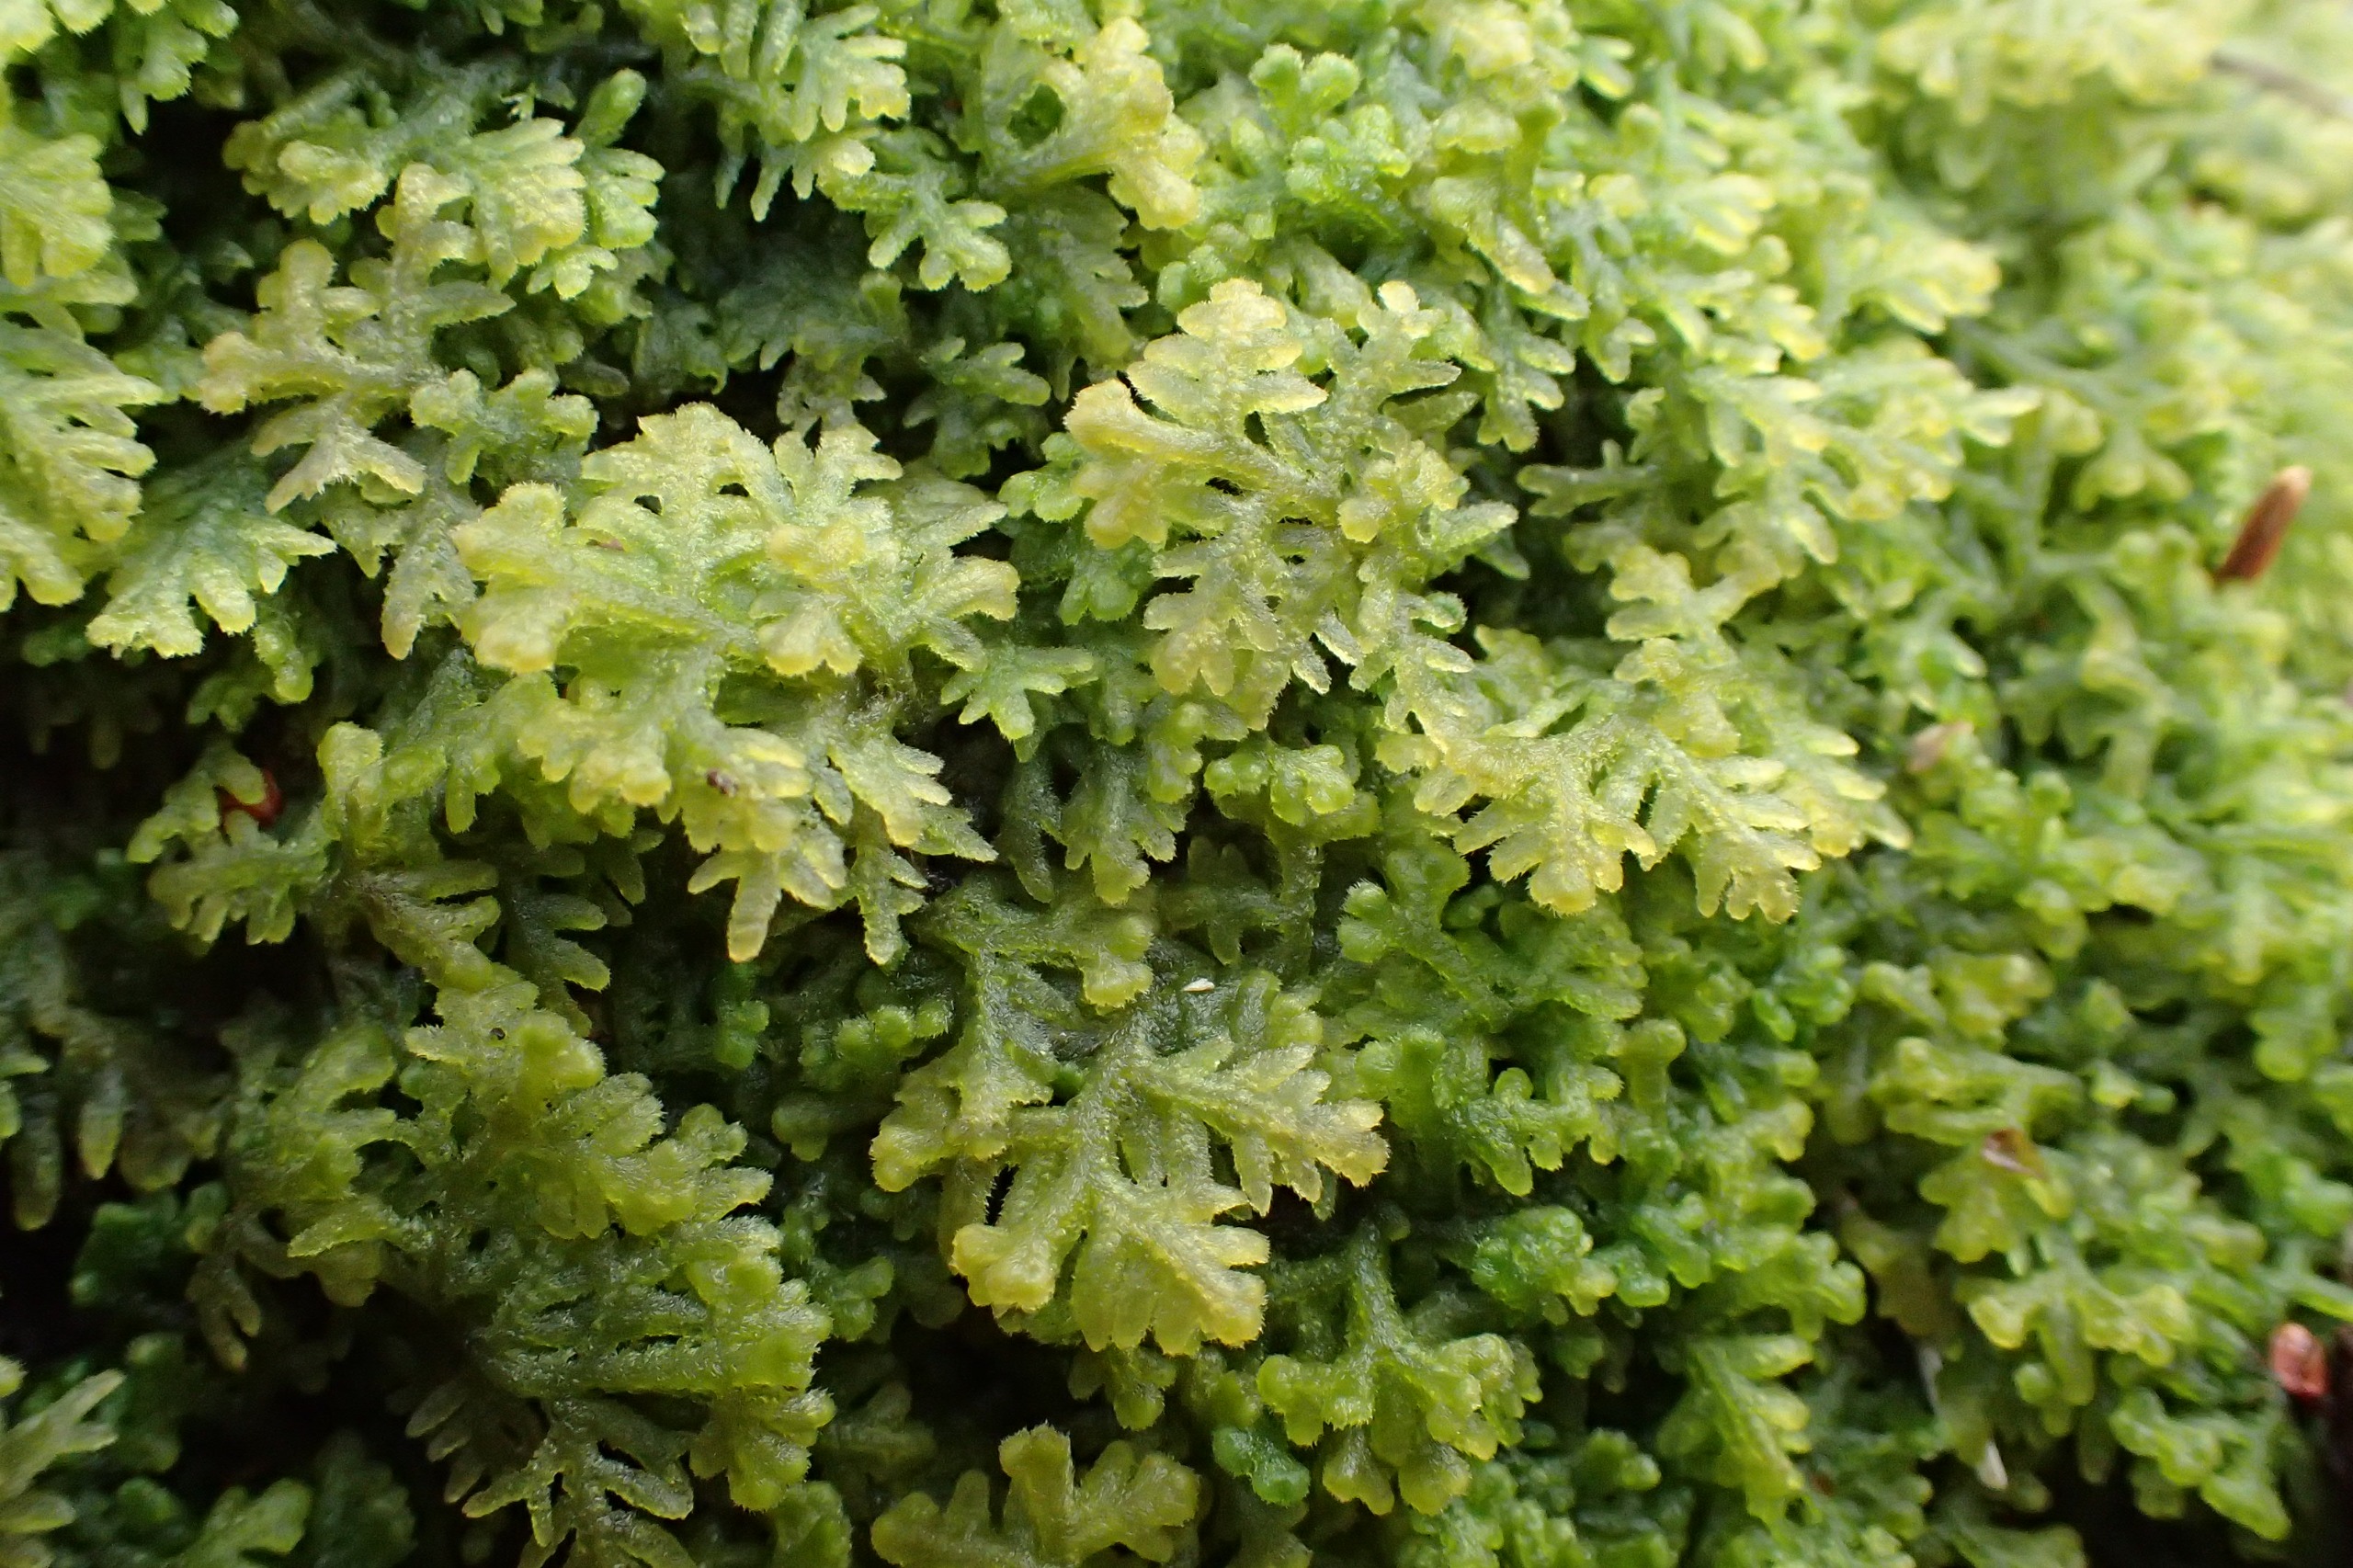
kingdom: Plantae
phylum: Marchantiophyta
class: Jungermanniopsida
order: Jungermanniales
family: Trichocoleaceae
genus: Trichocolea
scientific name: Trichocolea tomentella
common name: Bleg dunmos
